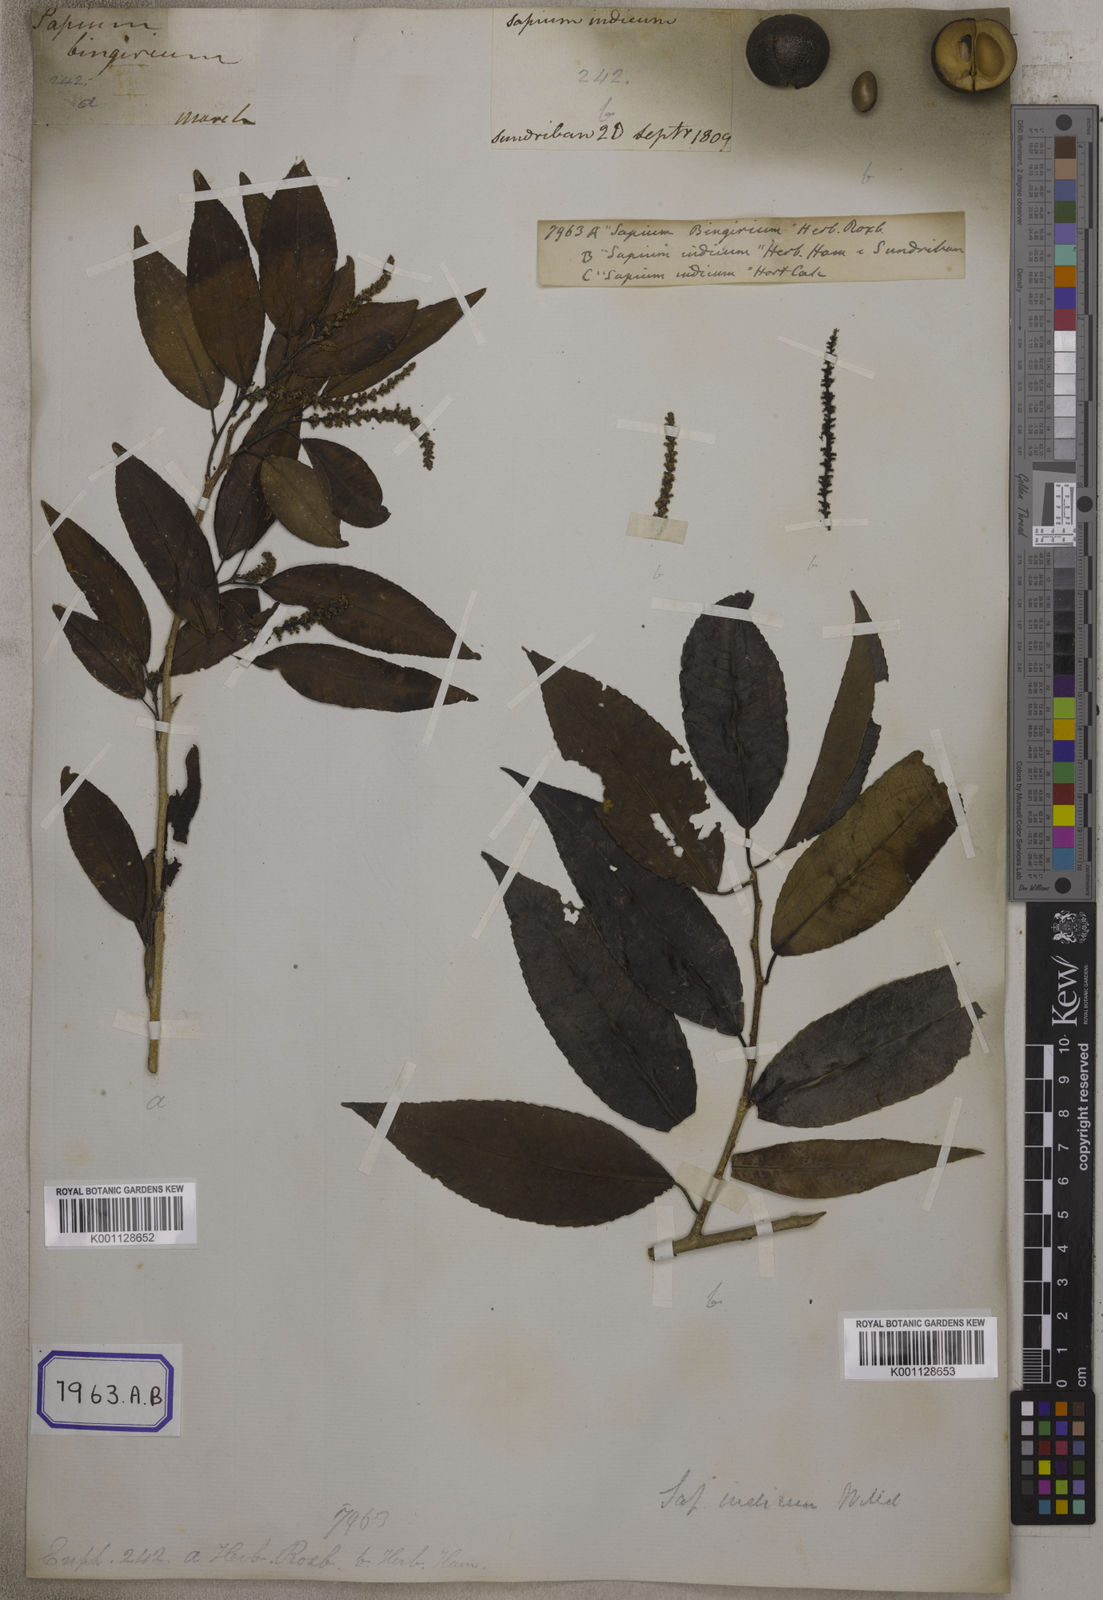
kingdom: Plantae
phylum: Tracheophyta
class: Magnoliopsida
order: Malpighiales
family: Euphorbiaceae
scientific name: Euphorbiaceae
